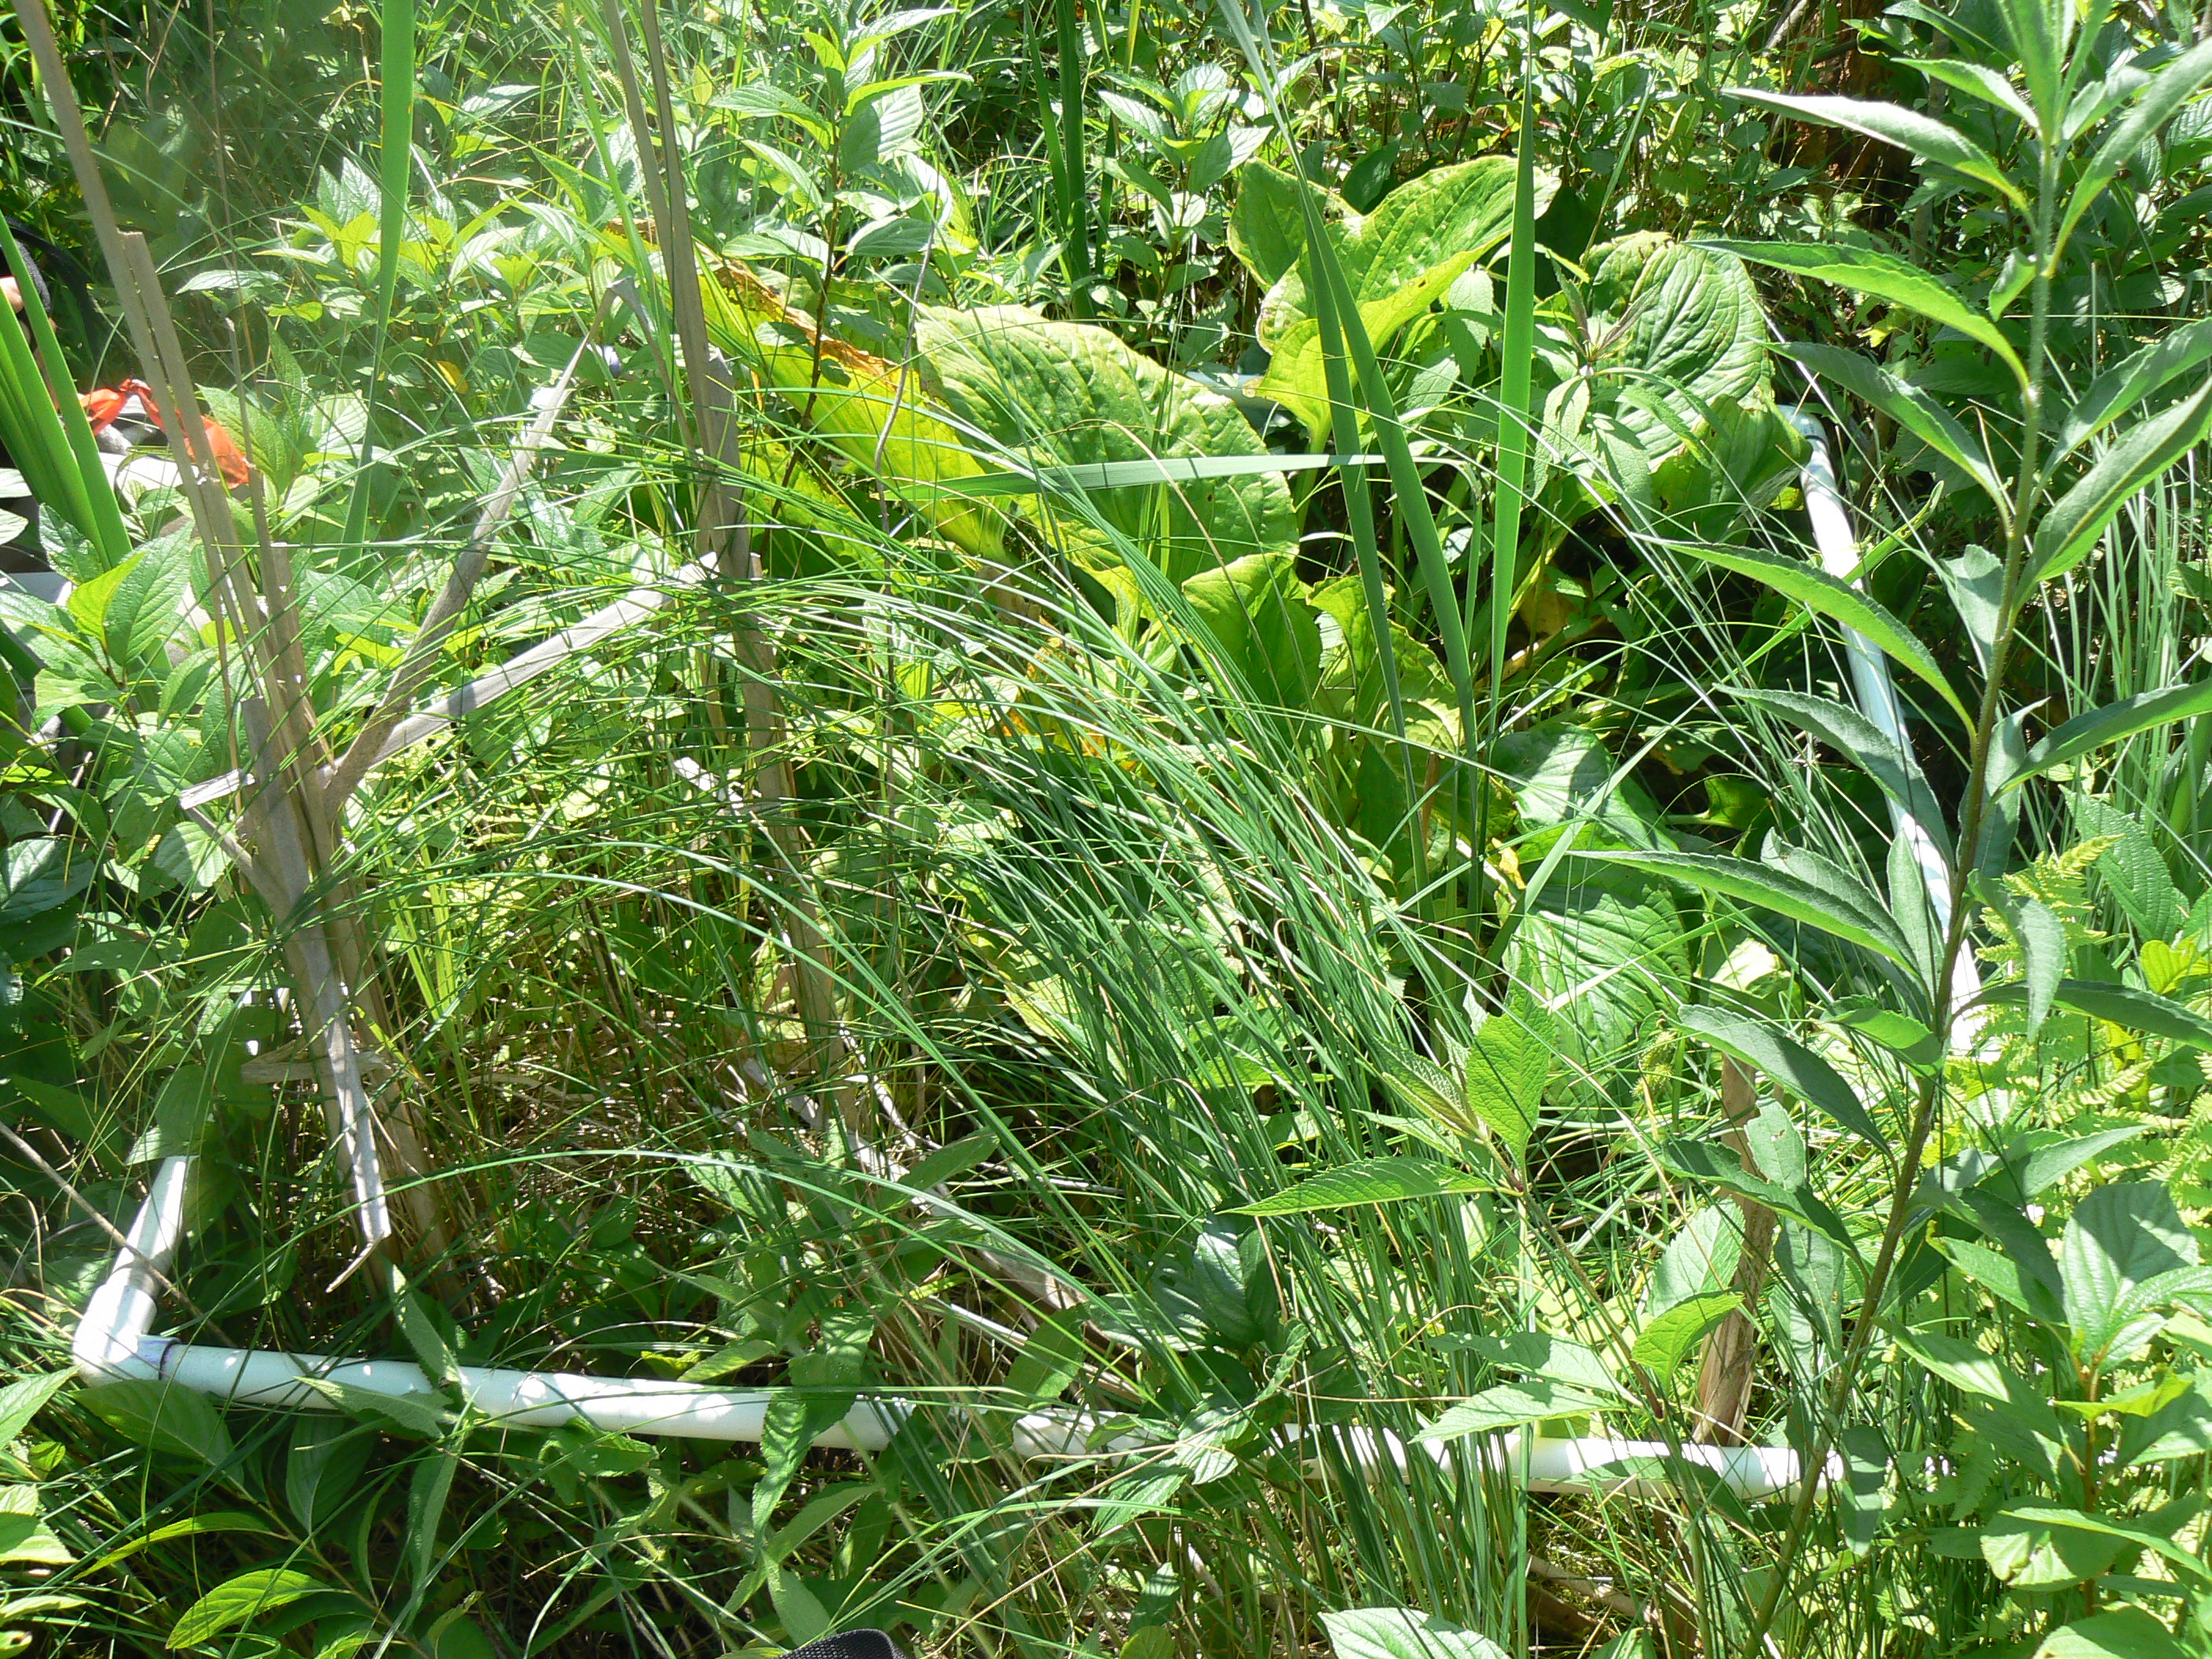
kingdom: Plantae
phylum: Tracheophyta
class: Liliopsida
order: Poales
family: Cyperaceae
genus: Carex
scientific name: Carex stipata
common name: Awl-fruited sedge
